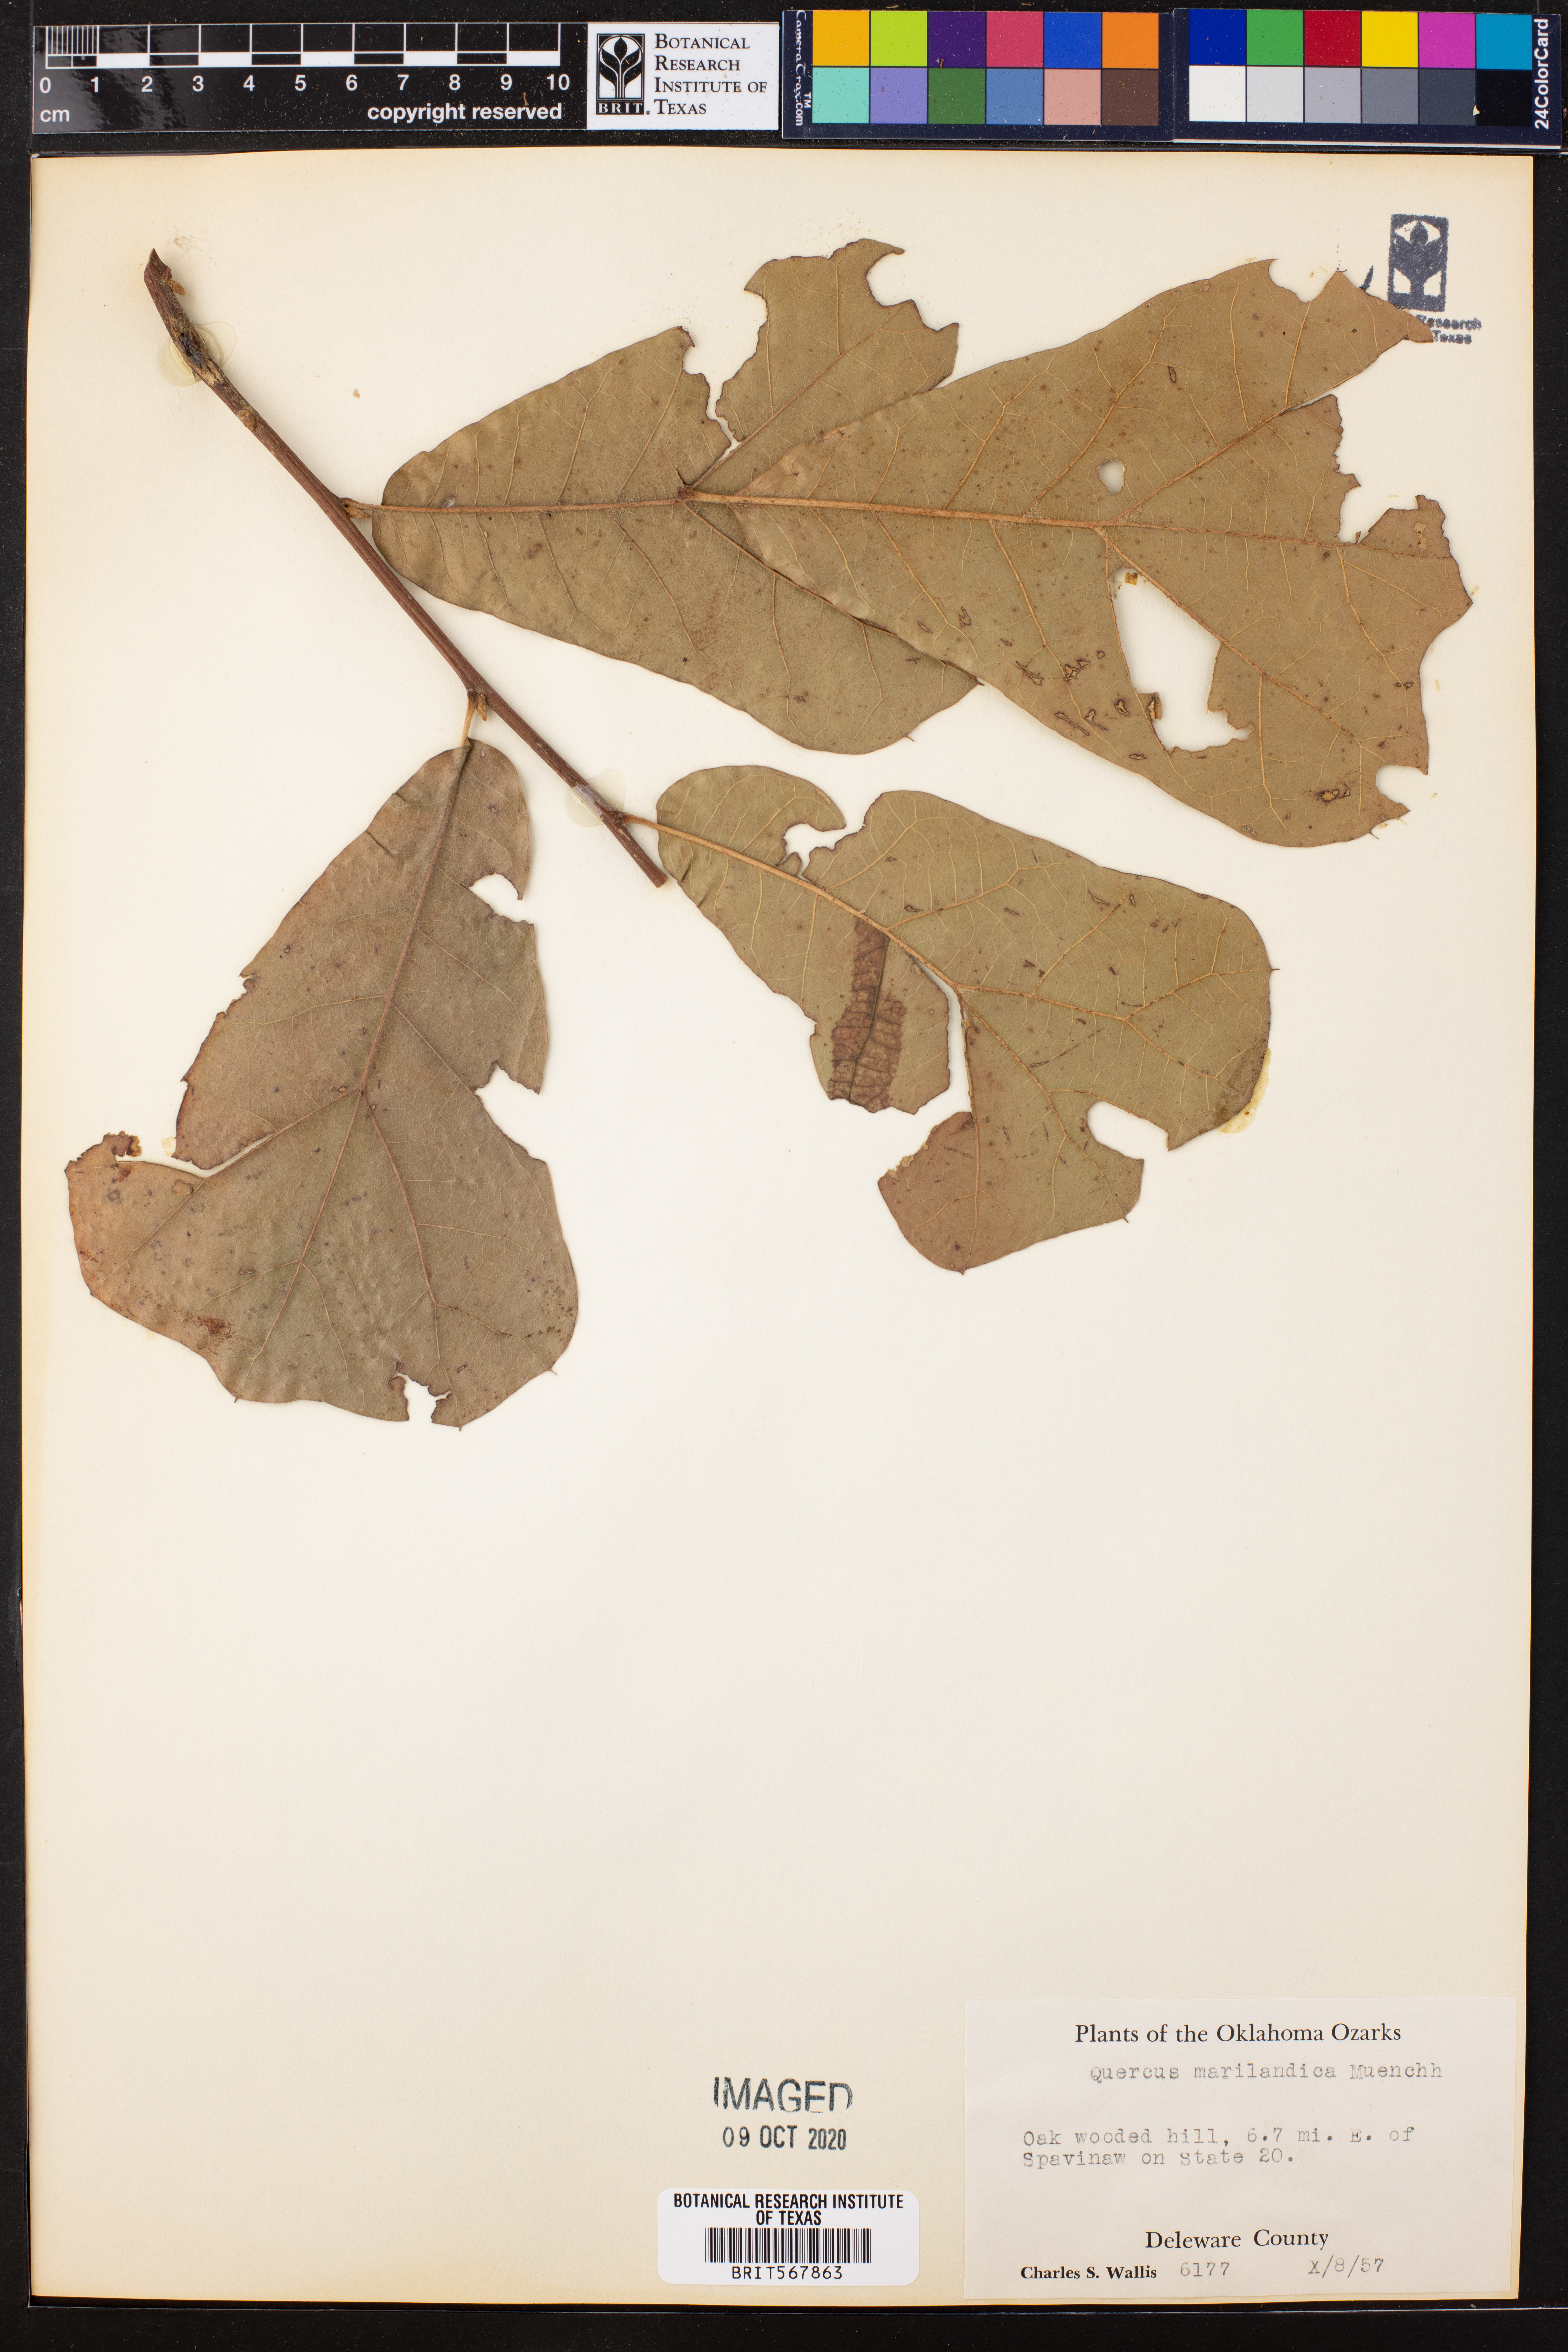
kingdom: Plantae
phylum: Tracheophyta
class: Magnoliopsida
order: Fagales
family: Fagaceae
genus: Quercus
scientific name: Quercus marilandica
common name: Blackjack oak
